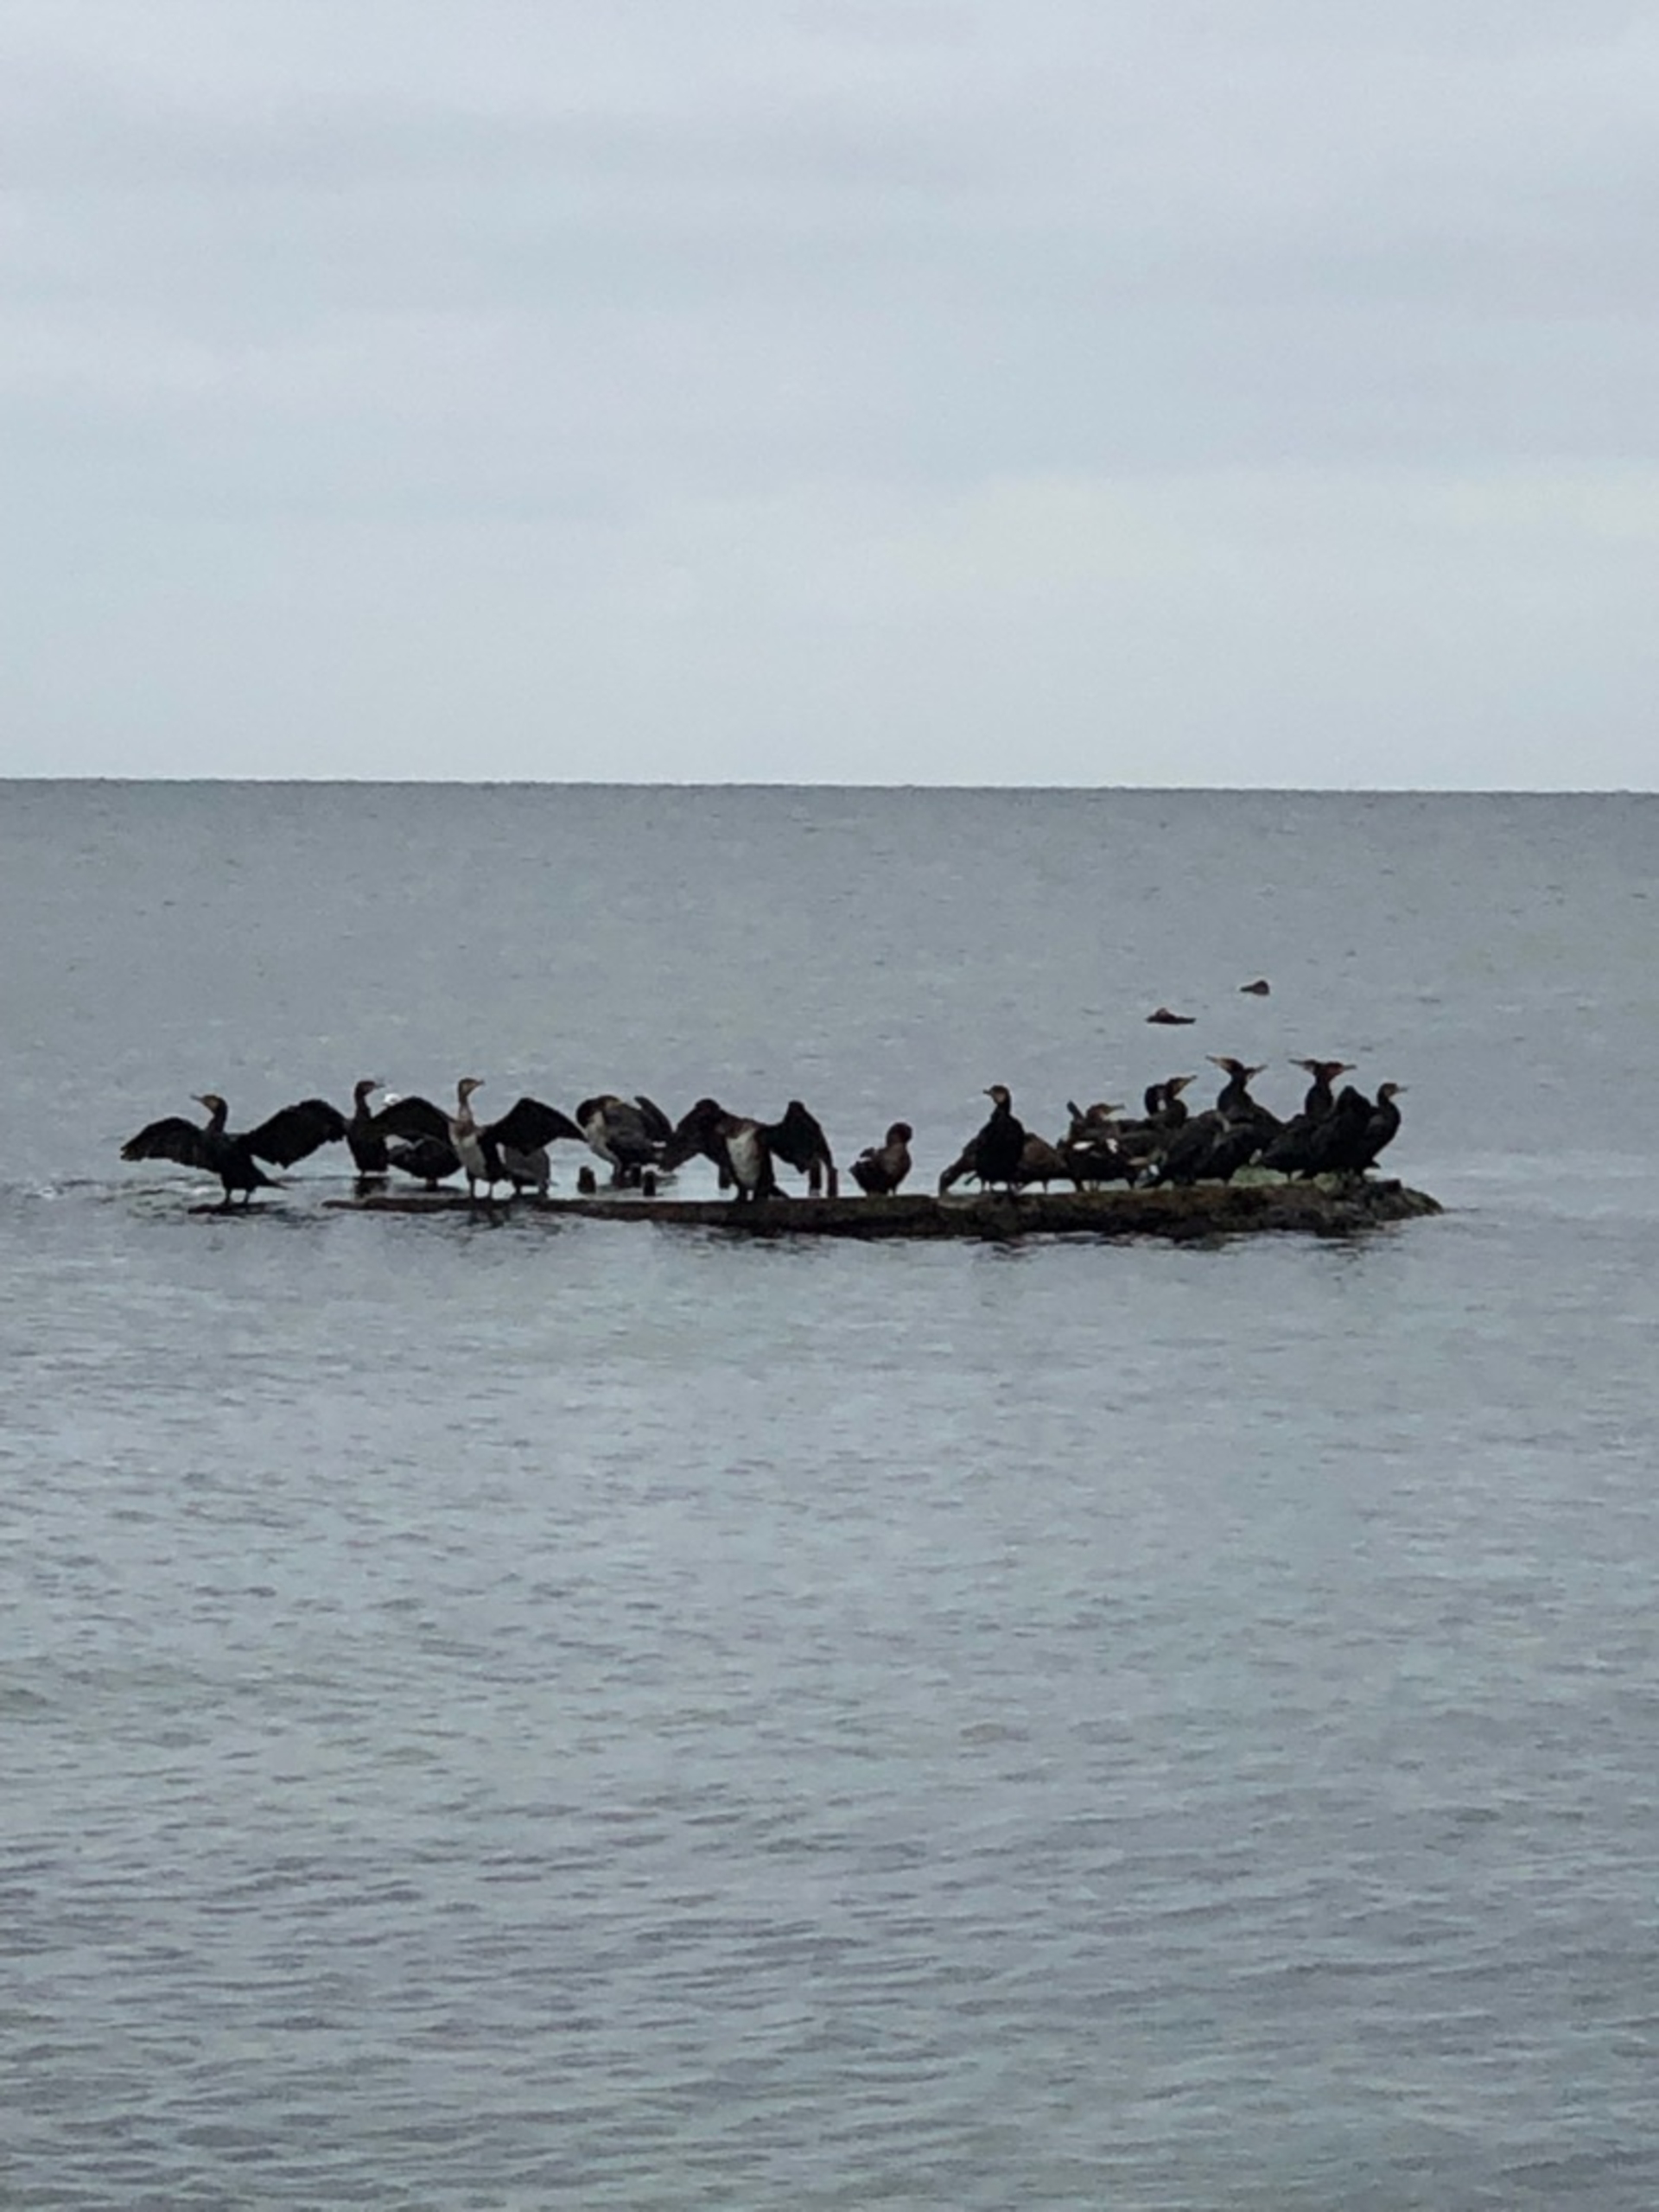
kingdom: Animalia
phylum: Chordata
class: Aves
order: Suliformes
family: Phalacrocoracidae
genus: Phalacrocorax
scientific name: Phalacrocorax carbo
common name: Skarv
